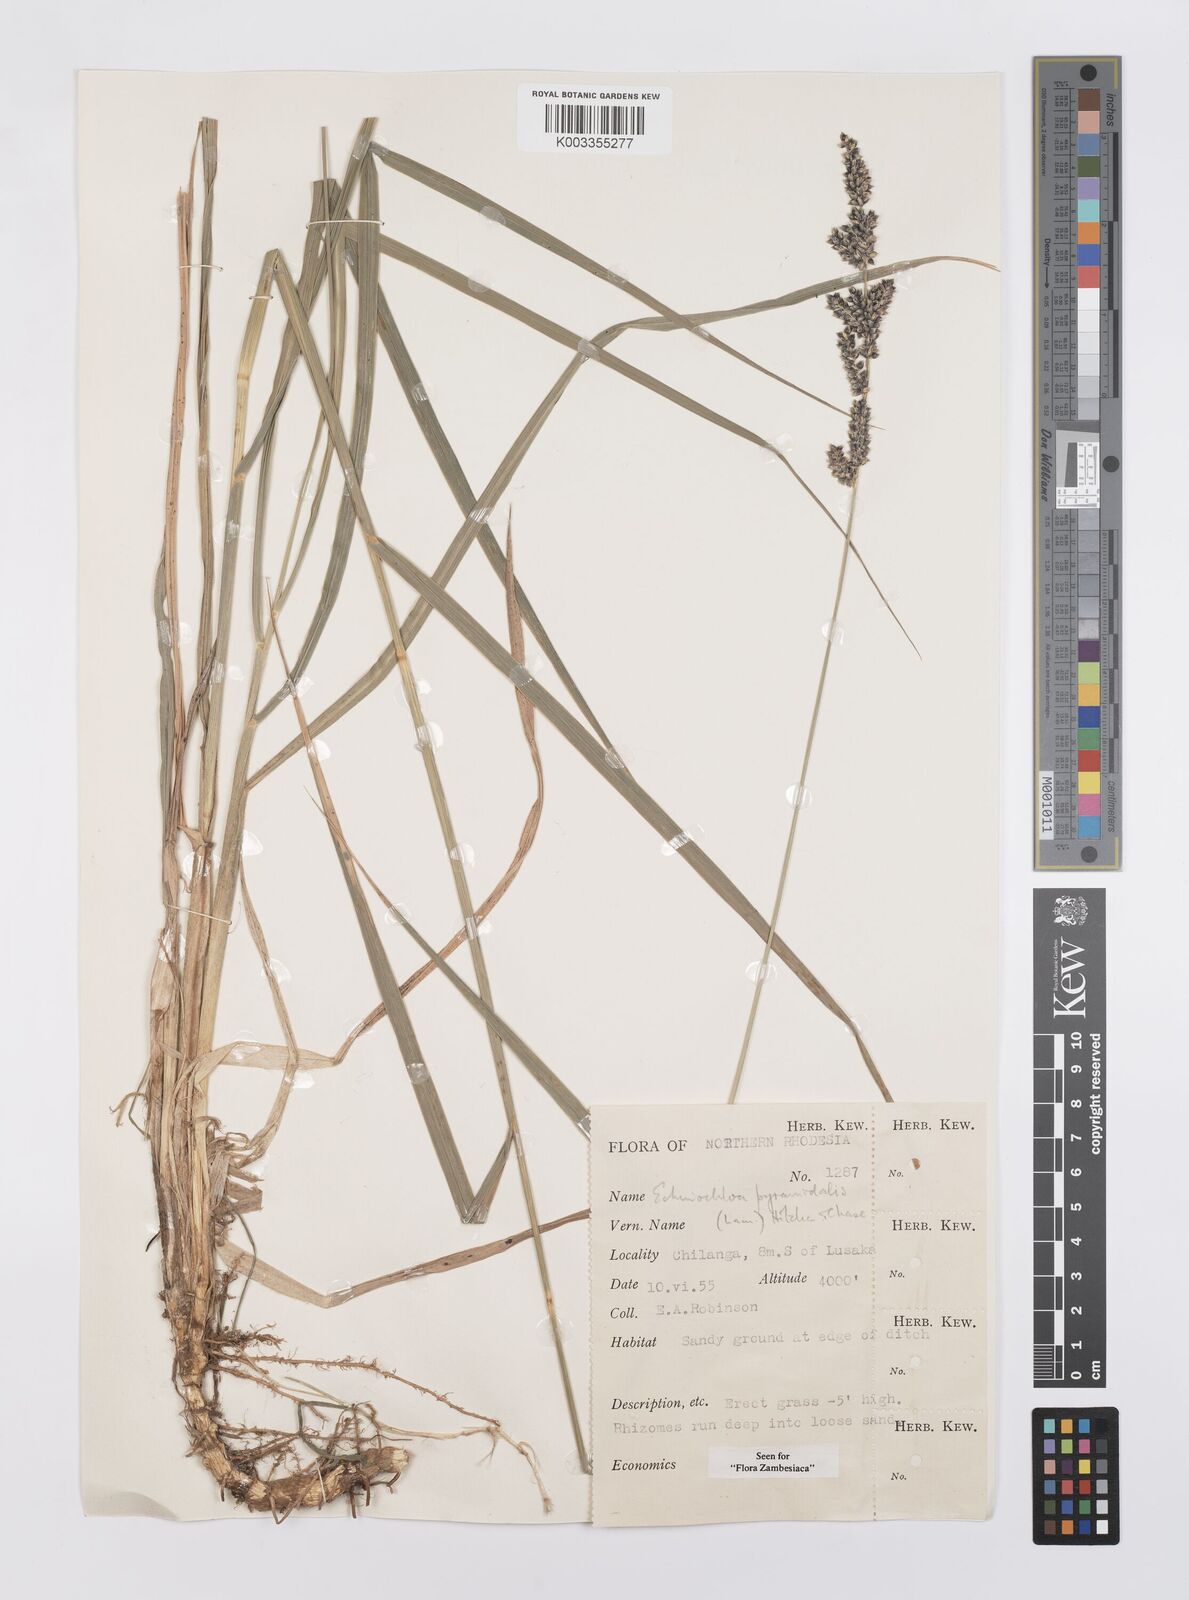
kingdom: Plantae
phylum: Tracheophyta
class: Liliopsida
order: Poales
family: Poaceae
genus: Echinochloa
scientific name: Echinochloa pyramidalis
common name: Antelope grass
